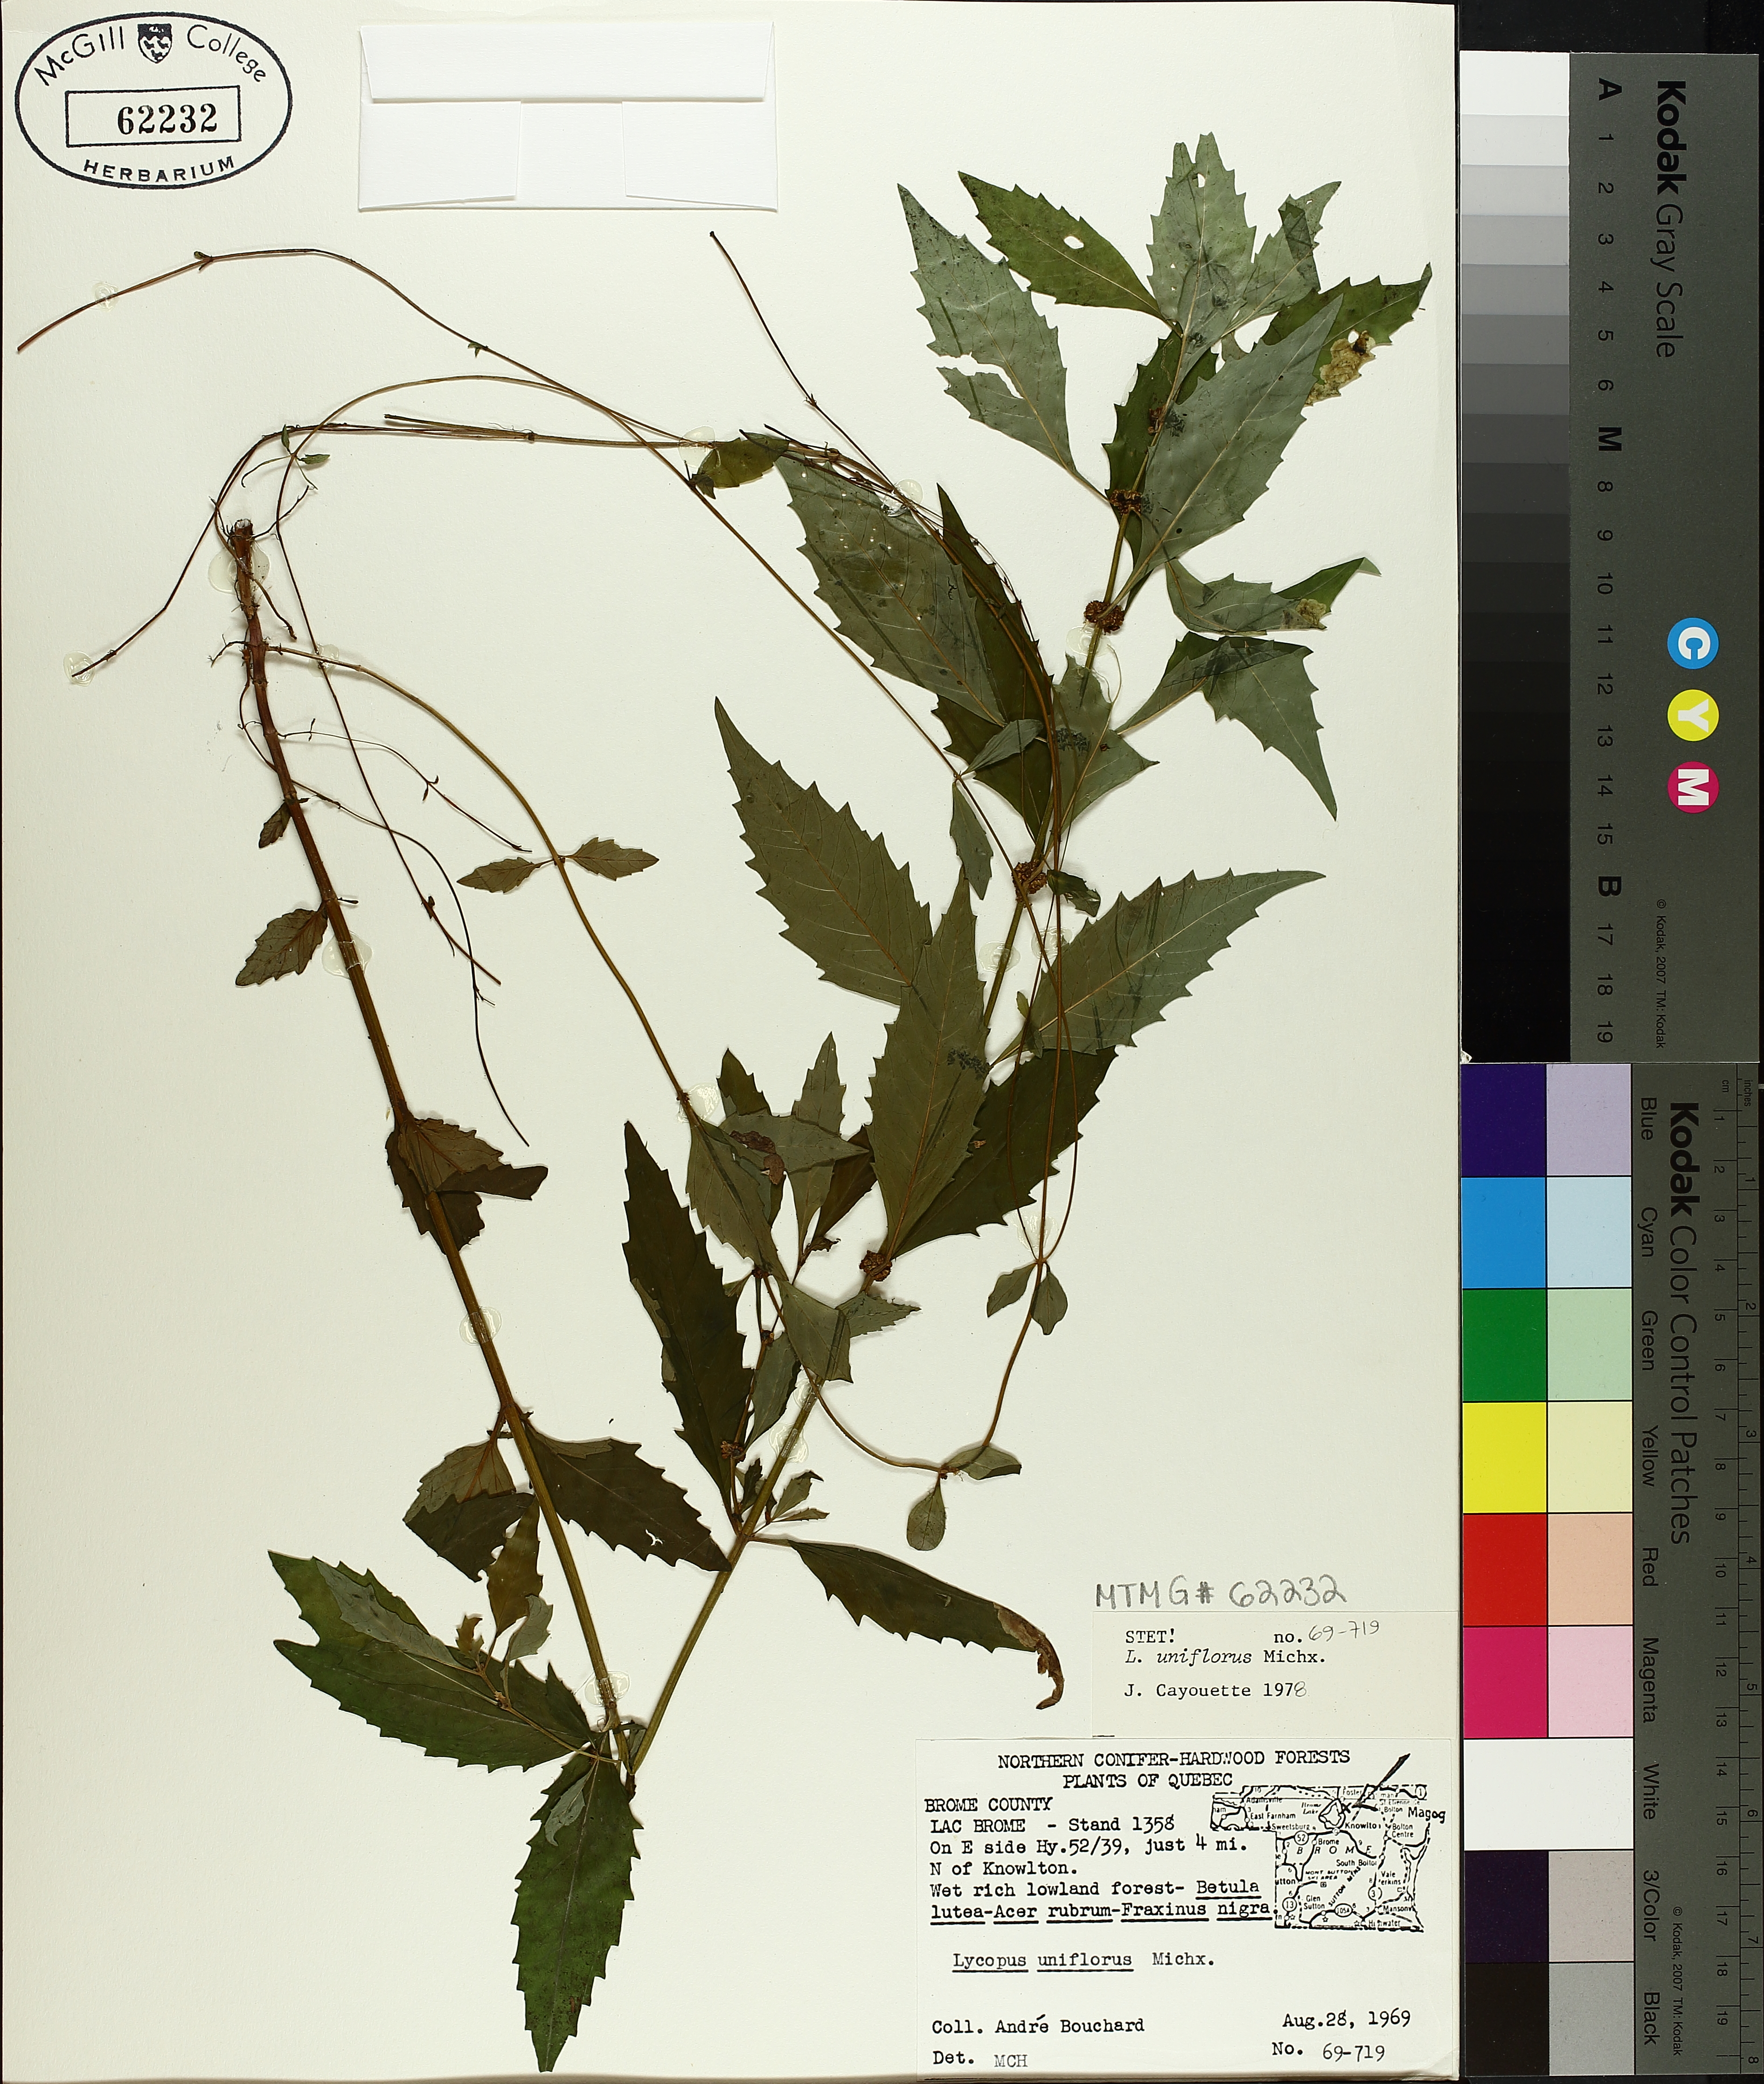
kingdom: Plantae
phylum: Tracheophyta
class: Magnoliopsida
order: Lamiales
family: Lamiaceae
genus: Lycopus
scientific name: Lycopus uniflorus
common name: Northern bugleweed
